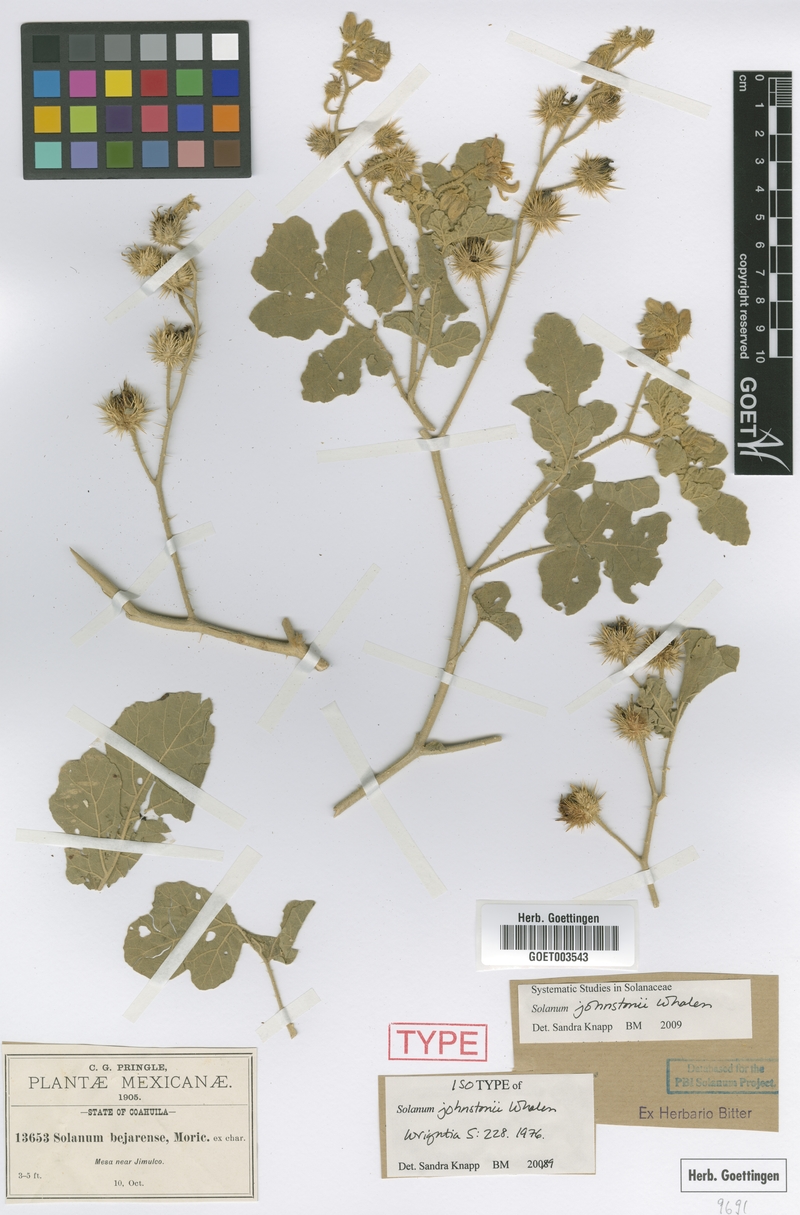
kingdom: Plantae
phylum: Tracheophyta
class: Magnoliopsida
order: Solanales
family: Solanaceae
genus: Solanum
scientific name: Solanum johnstonii
